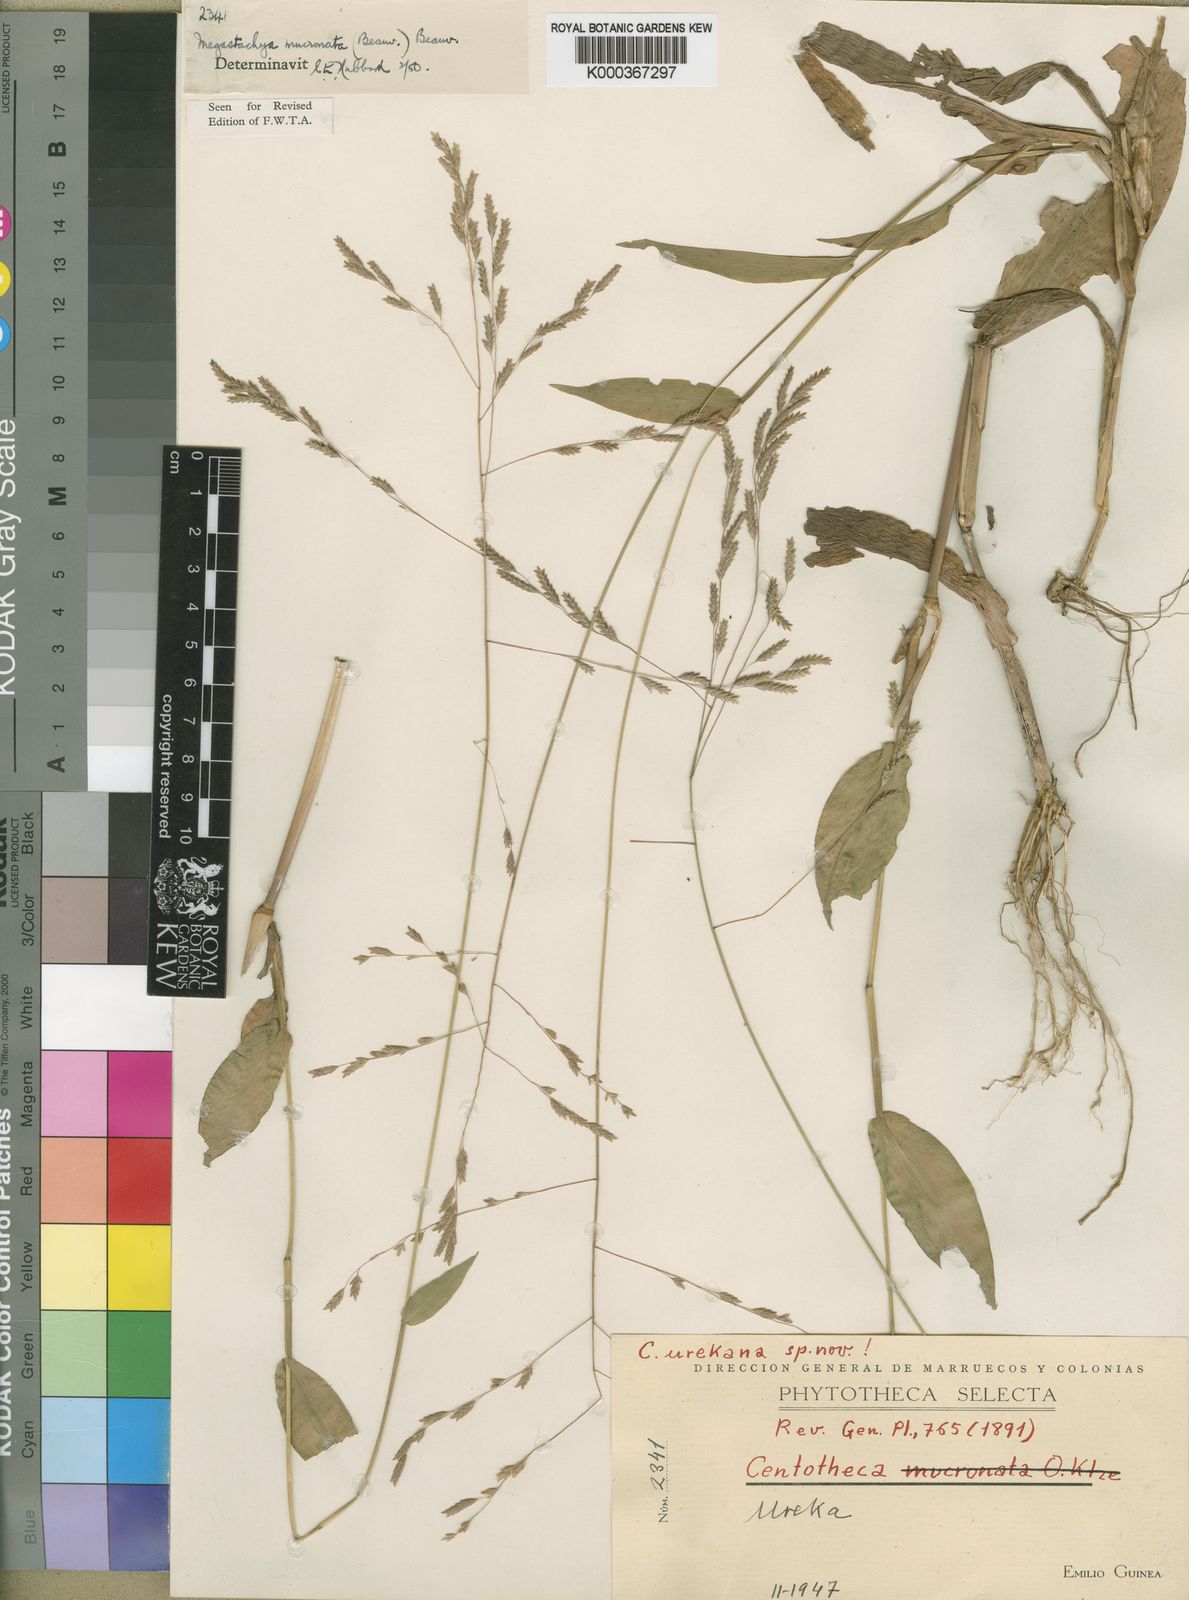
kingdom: Plantae
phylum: Tracheophyta
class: Liliopsida
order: Poales
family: Poaceae
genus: Megastachya
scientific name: Megastachya mucronata
